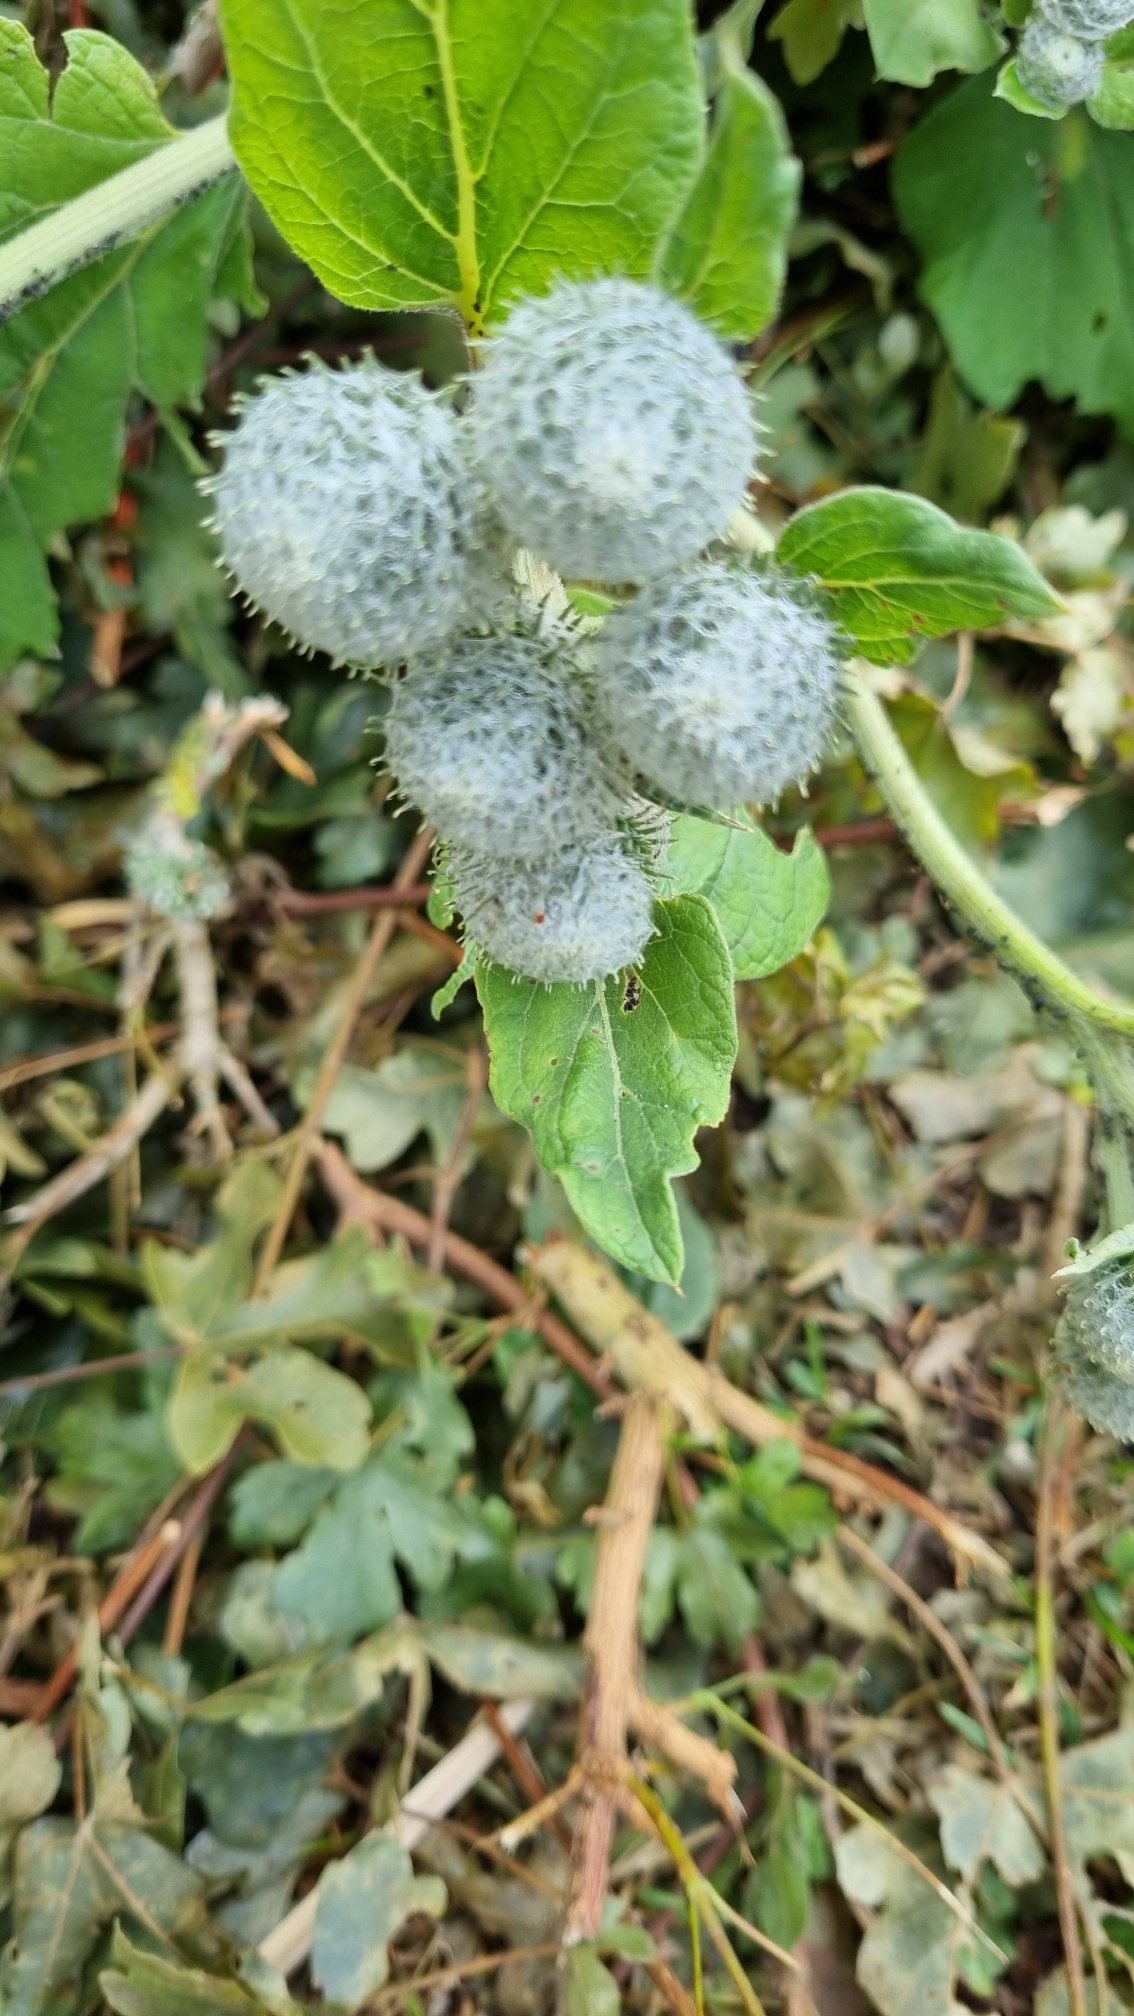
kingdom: Plantae
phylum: Tracheophyta
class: Magnoliopsida
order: Asterales
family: Asteraceae
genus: Arctium
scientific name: Arctium tomentosum
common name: Filtet burre
